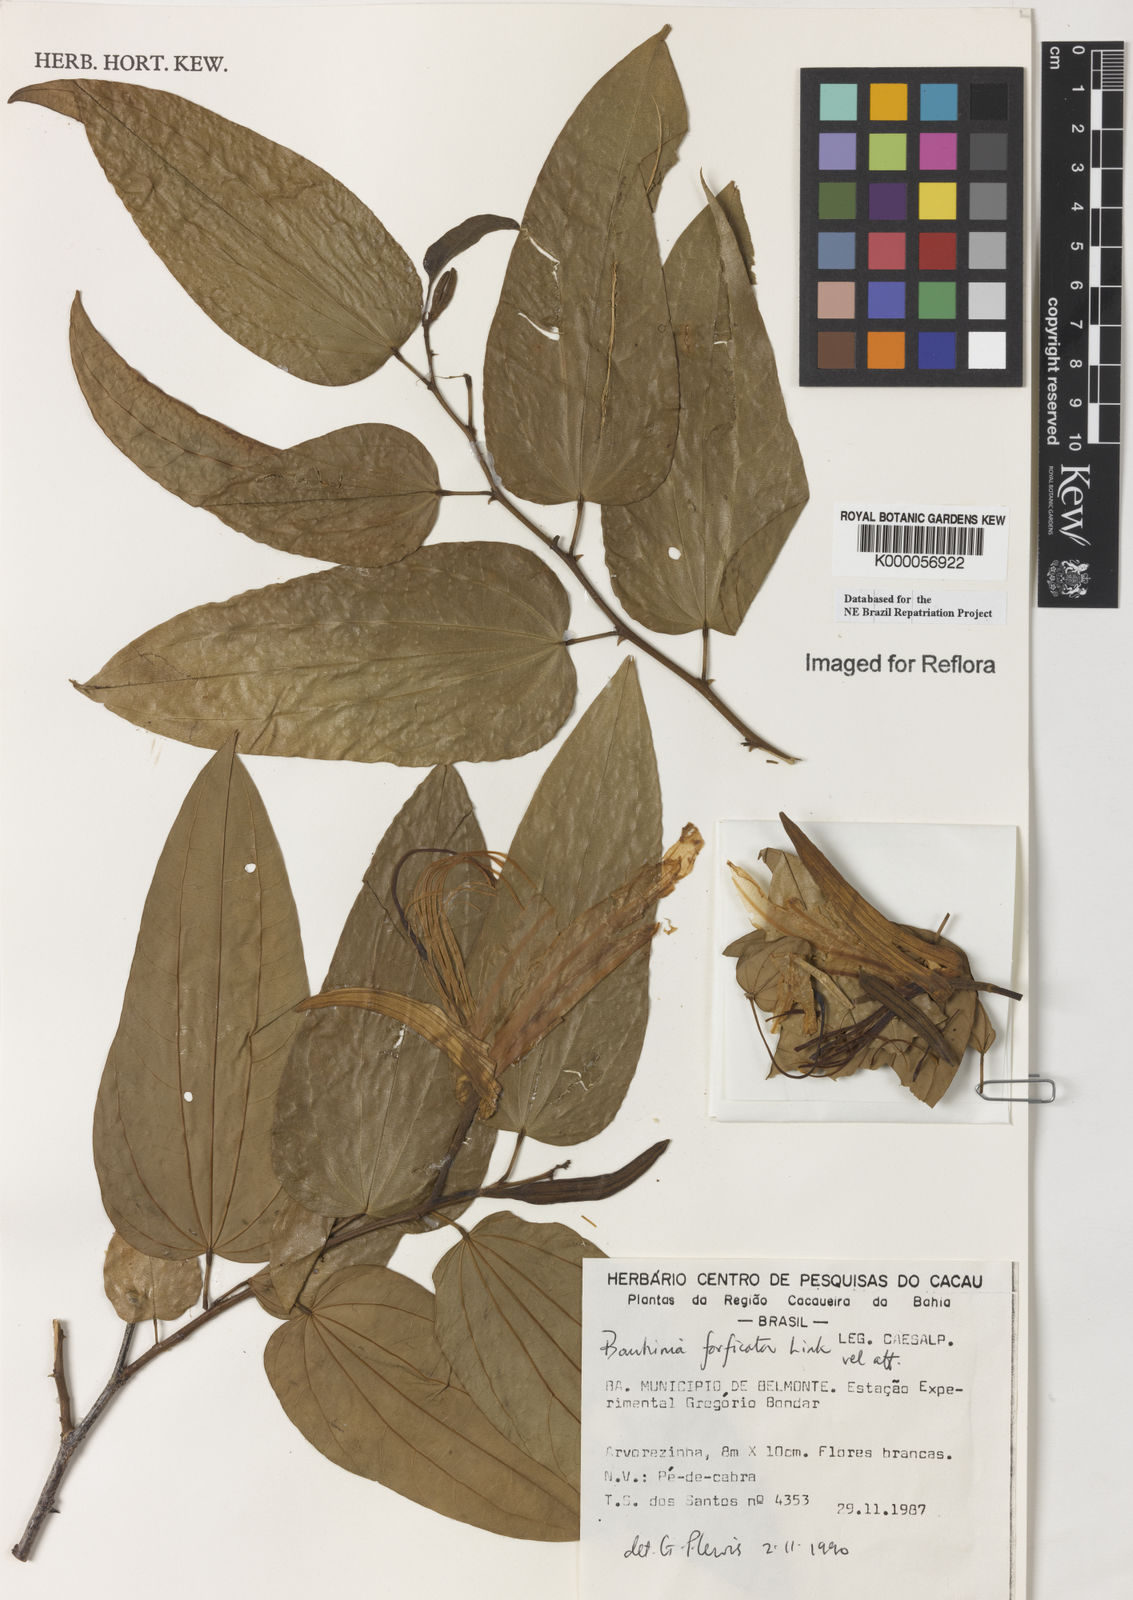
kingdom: Plantae
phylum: Tracheophyta
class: Magnoliopsida
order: Fabales
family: Fabaceae
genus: Bauhinia
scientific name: Bauhinia forficata
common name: Orchid tree
